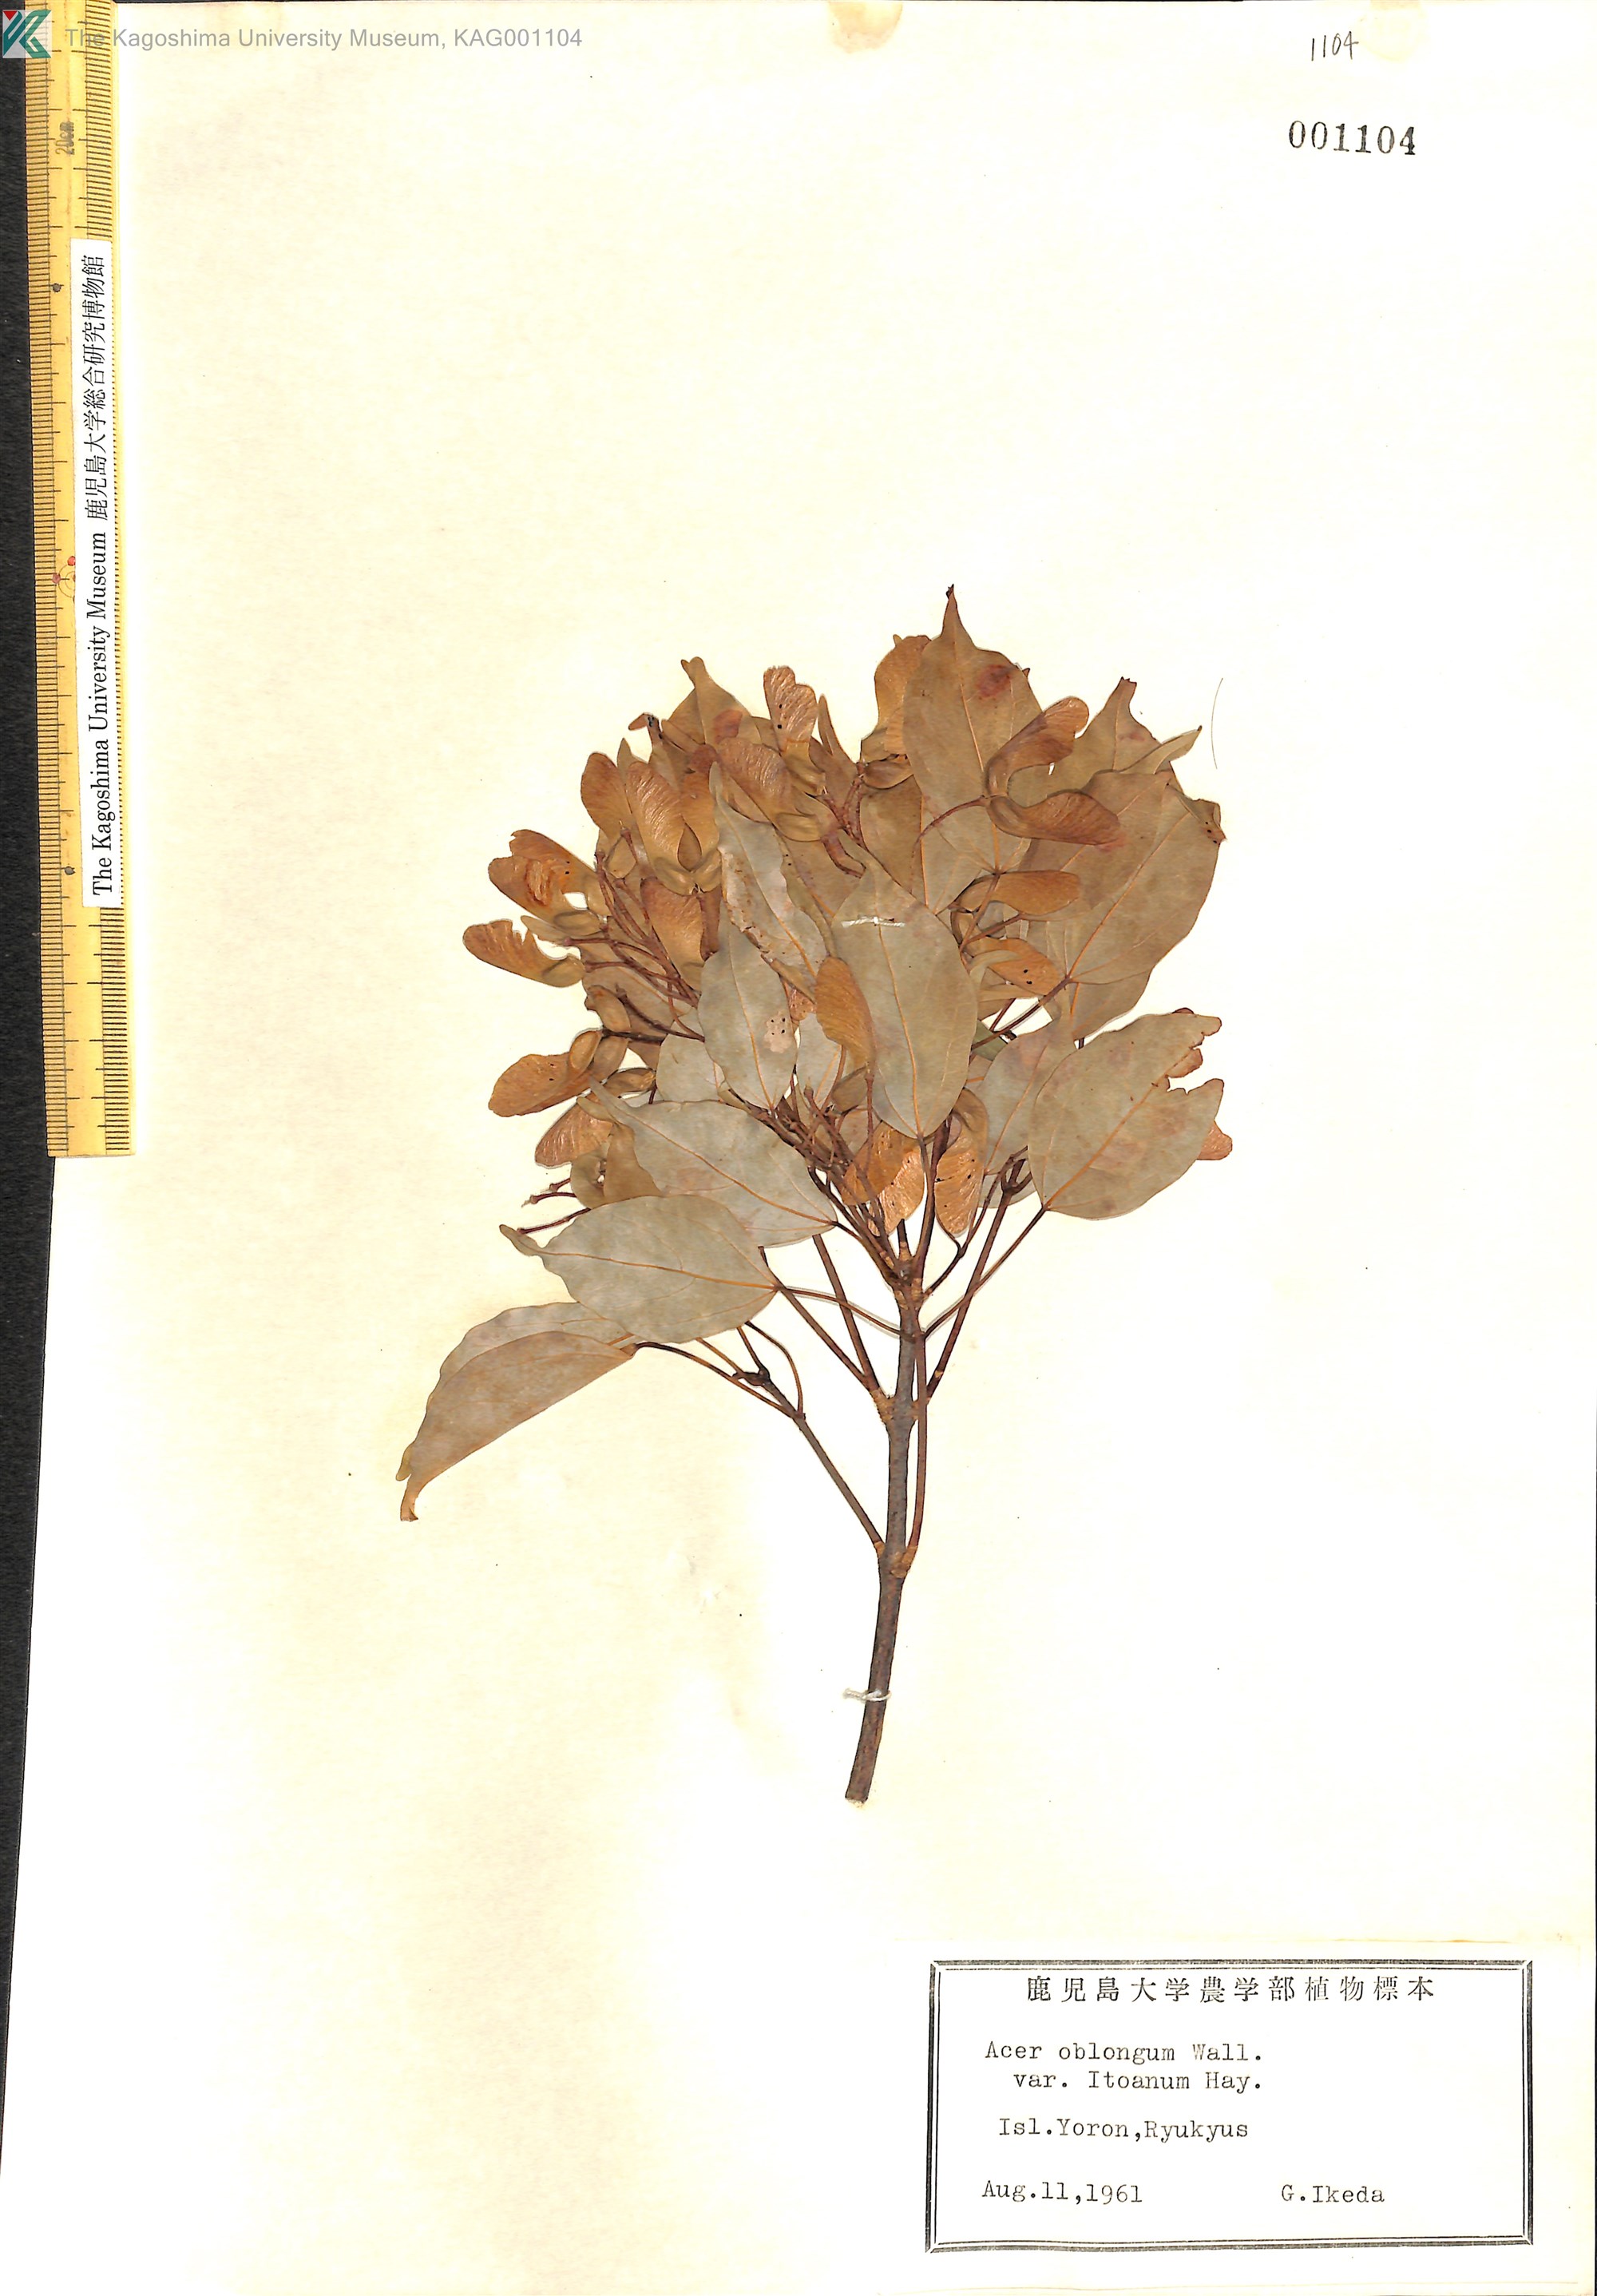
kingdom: Plantae
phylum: Tracheophyta
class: Magnoliopsida
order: Sapindales
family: Sapindaceae
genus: Acer
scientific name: Acer oblongum
